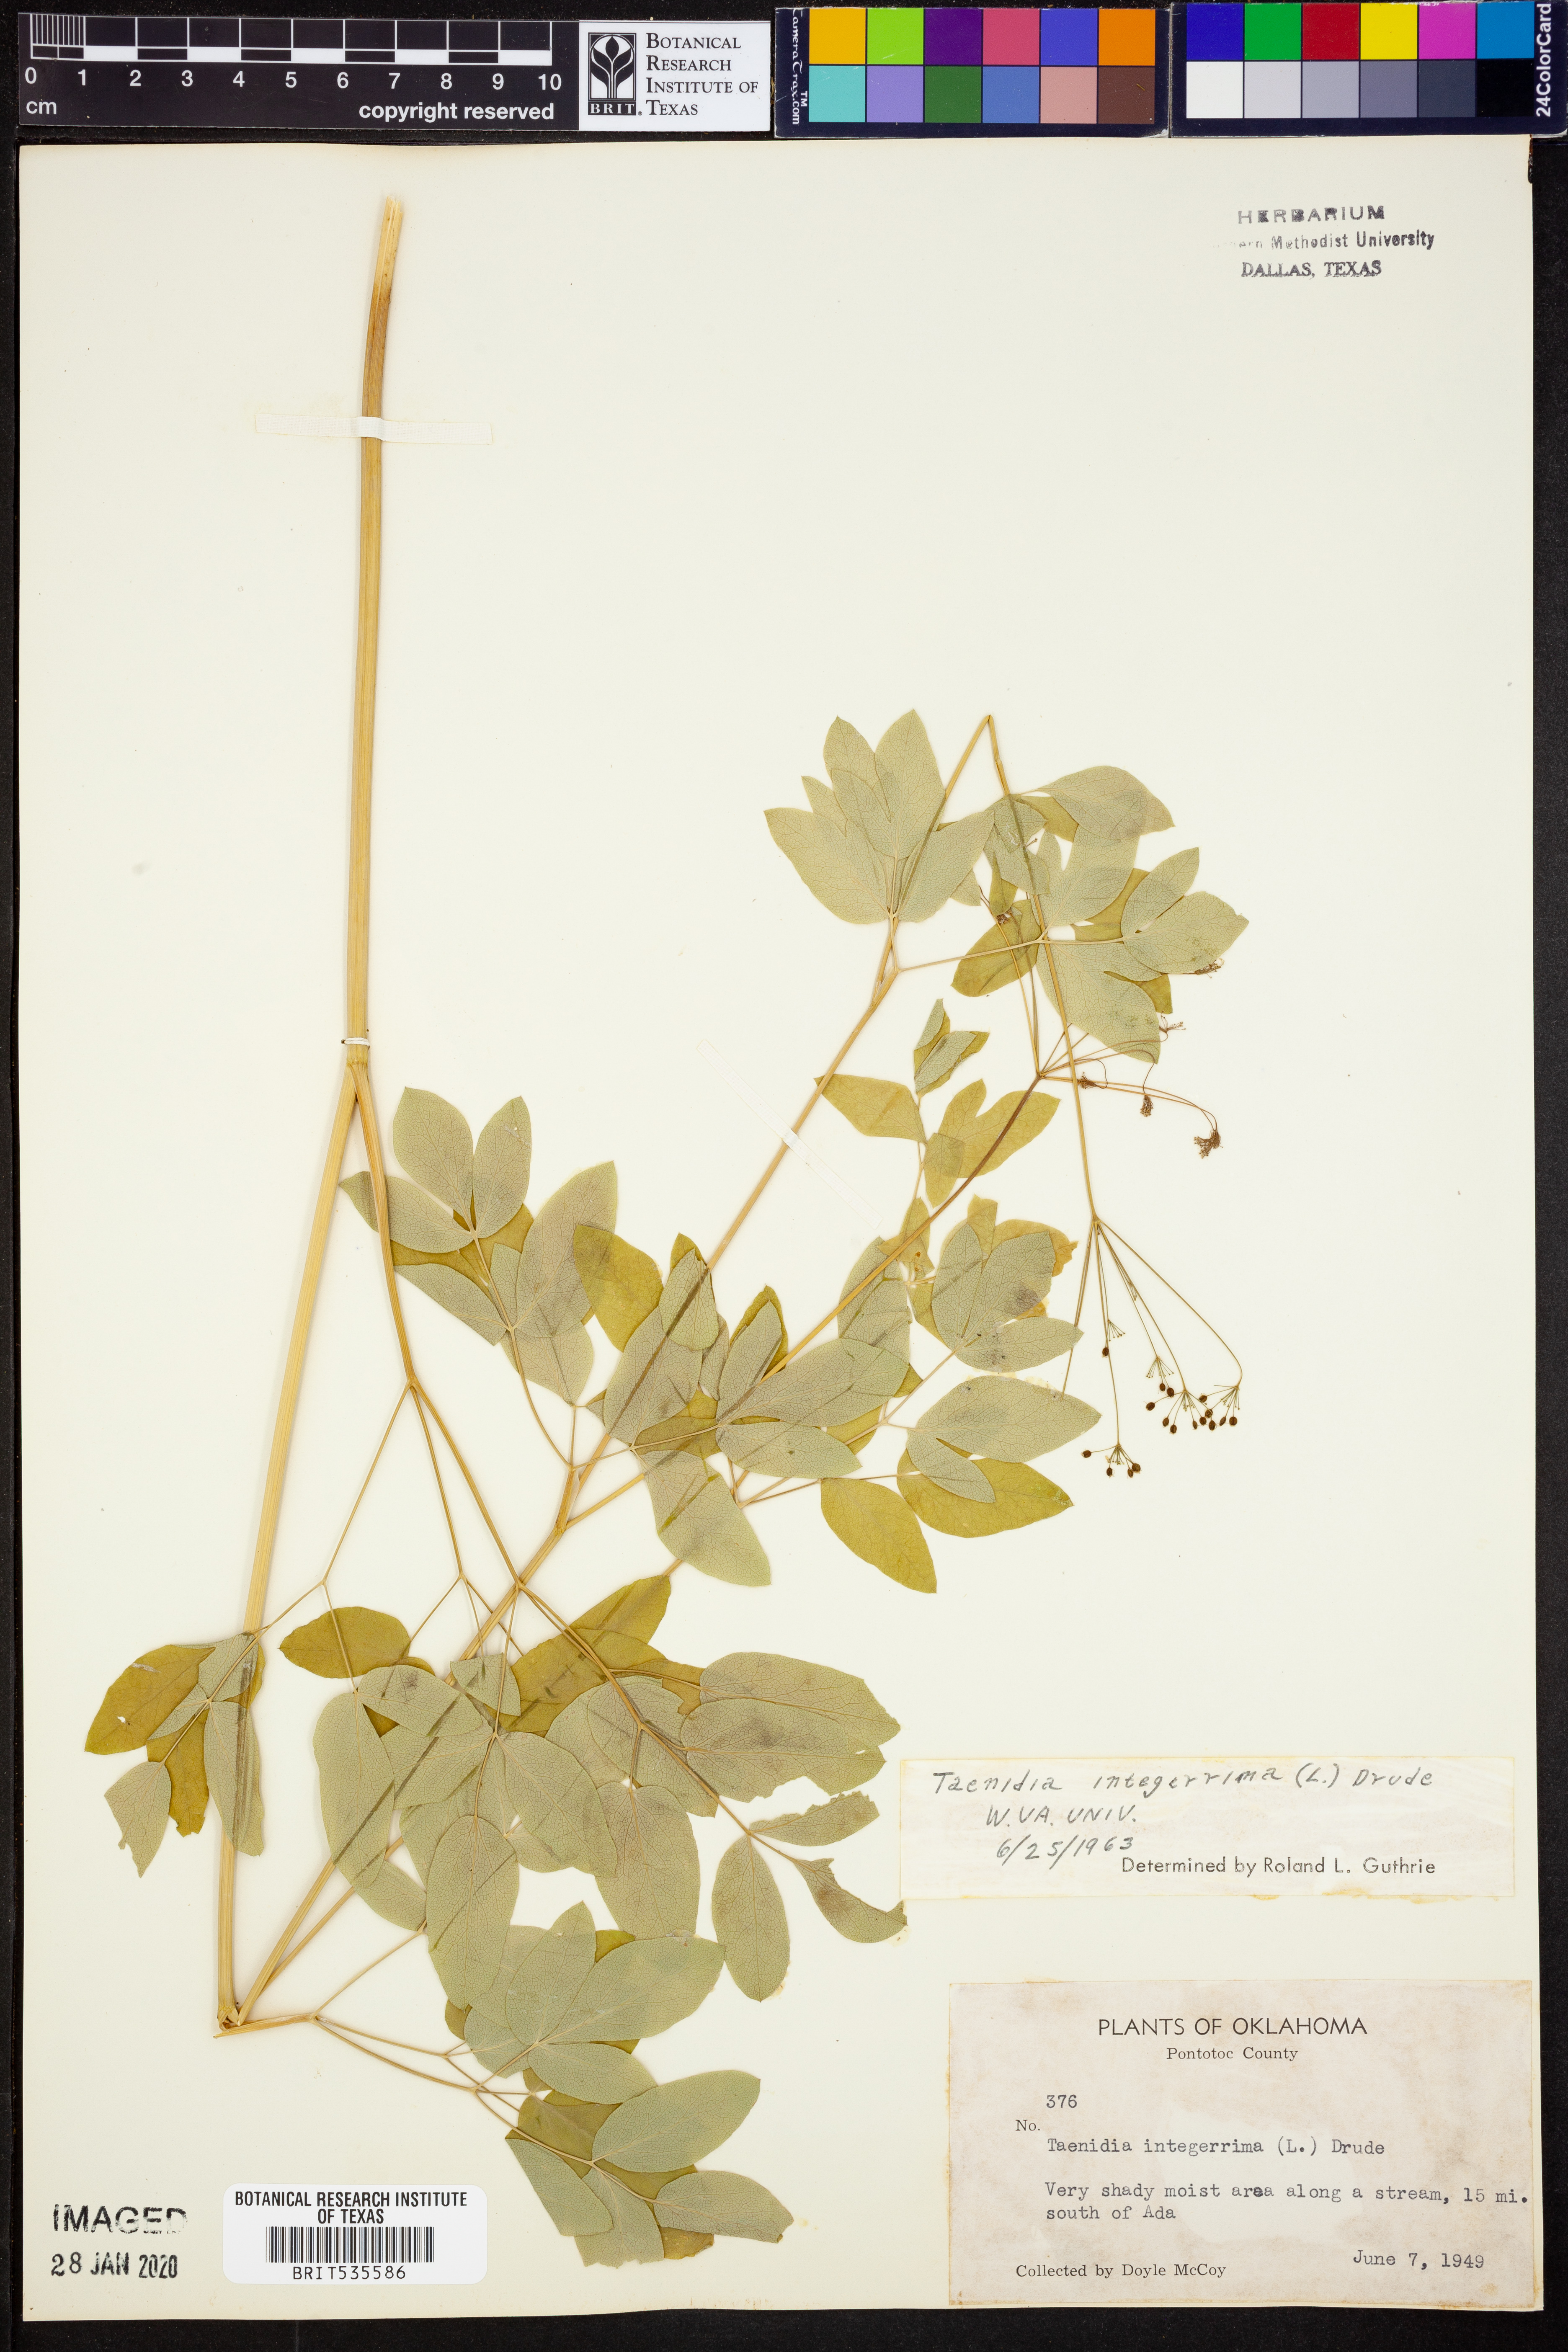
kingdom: Plantae
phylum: Tracheophyta
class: Magnoliopsida
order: Apiales
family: Apiaceae
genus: Taenidia
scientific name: Taenidia integerrima
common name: Golden alexander
